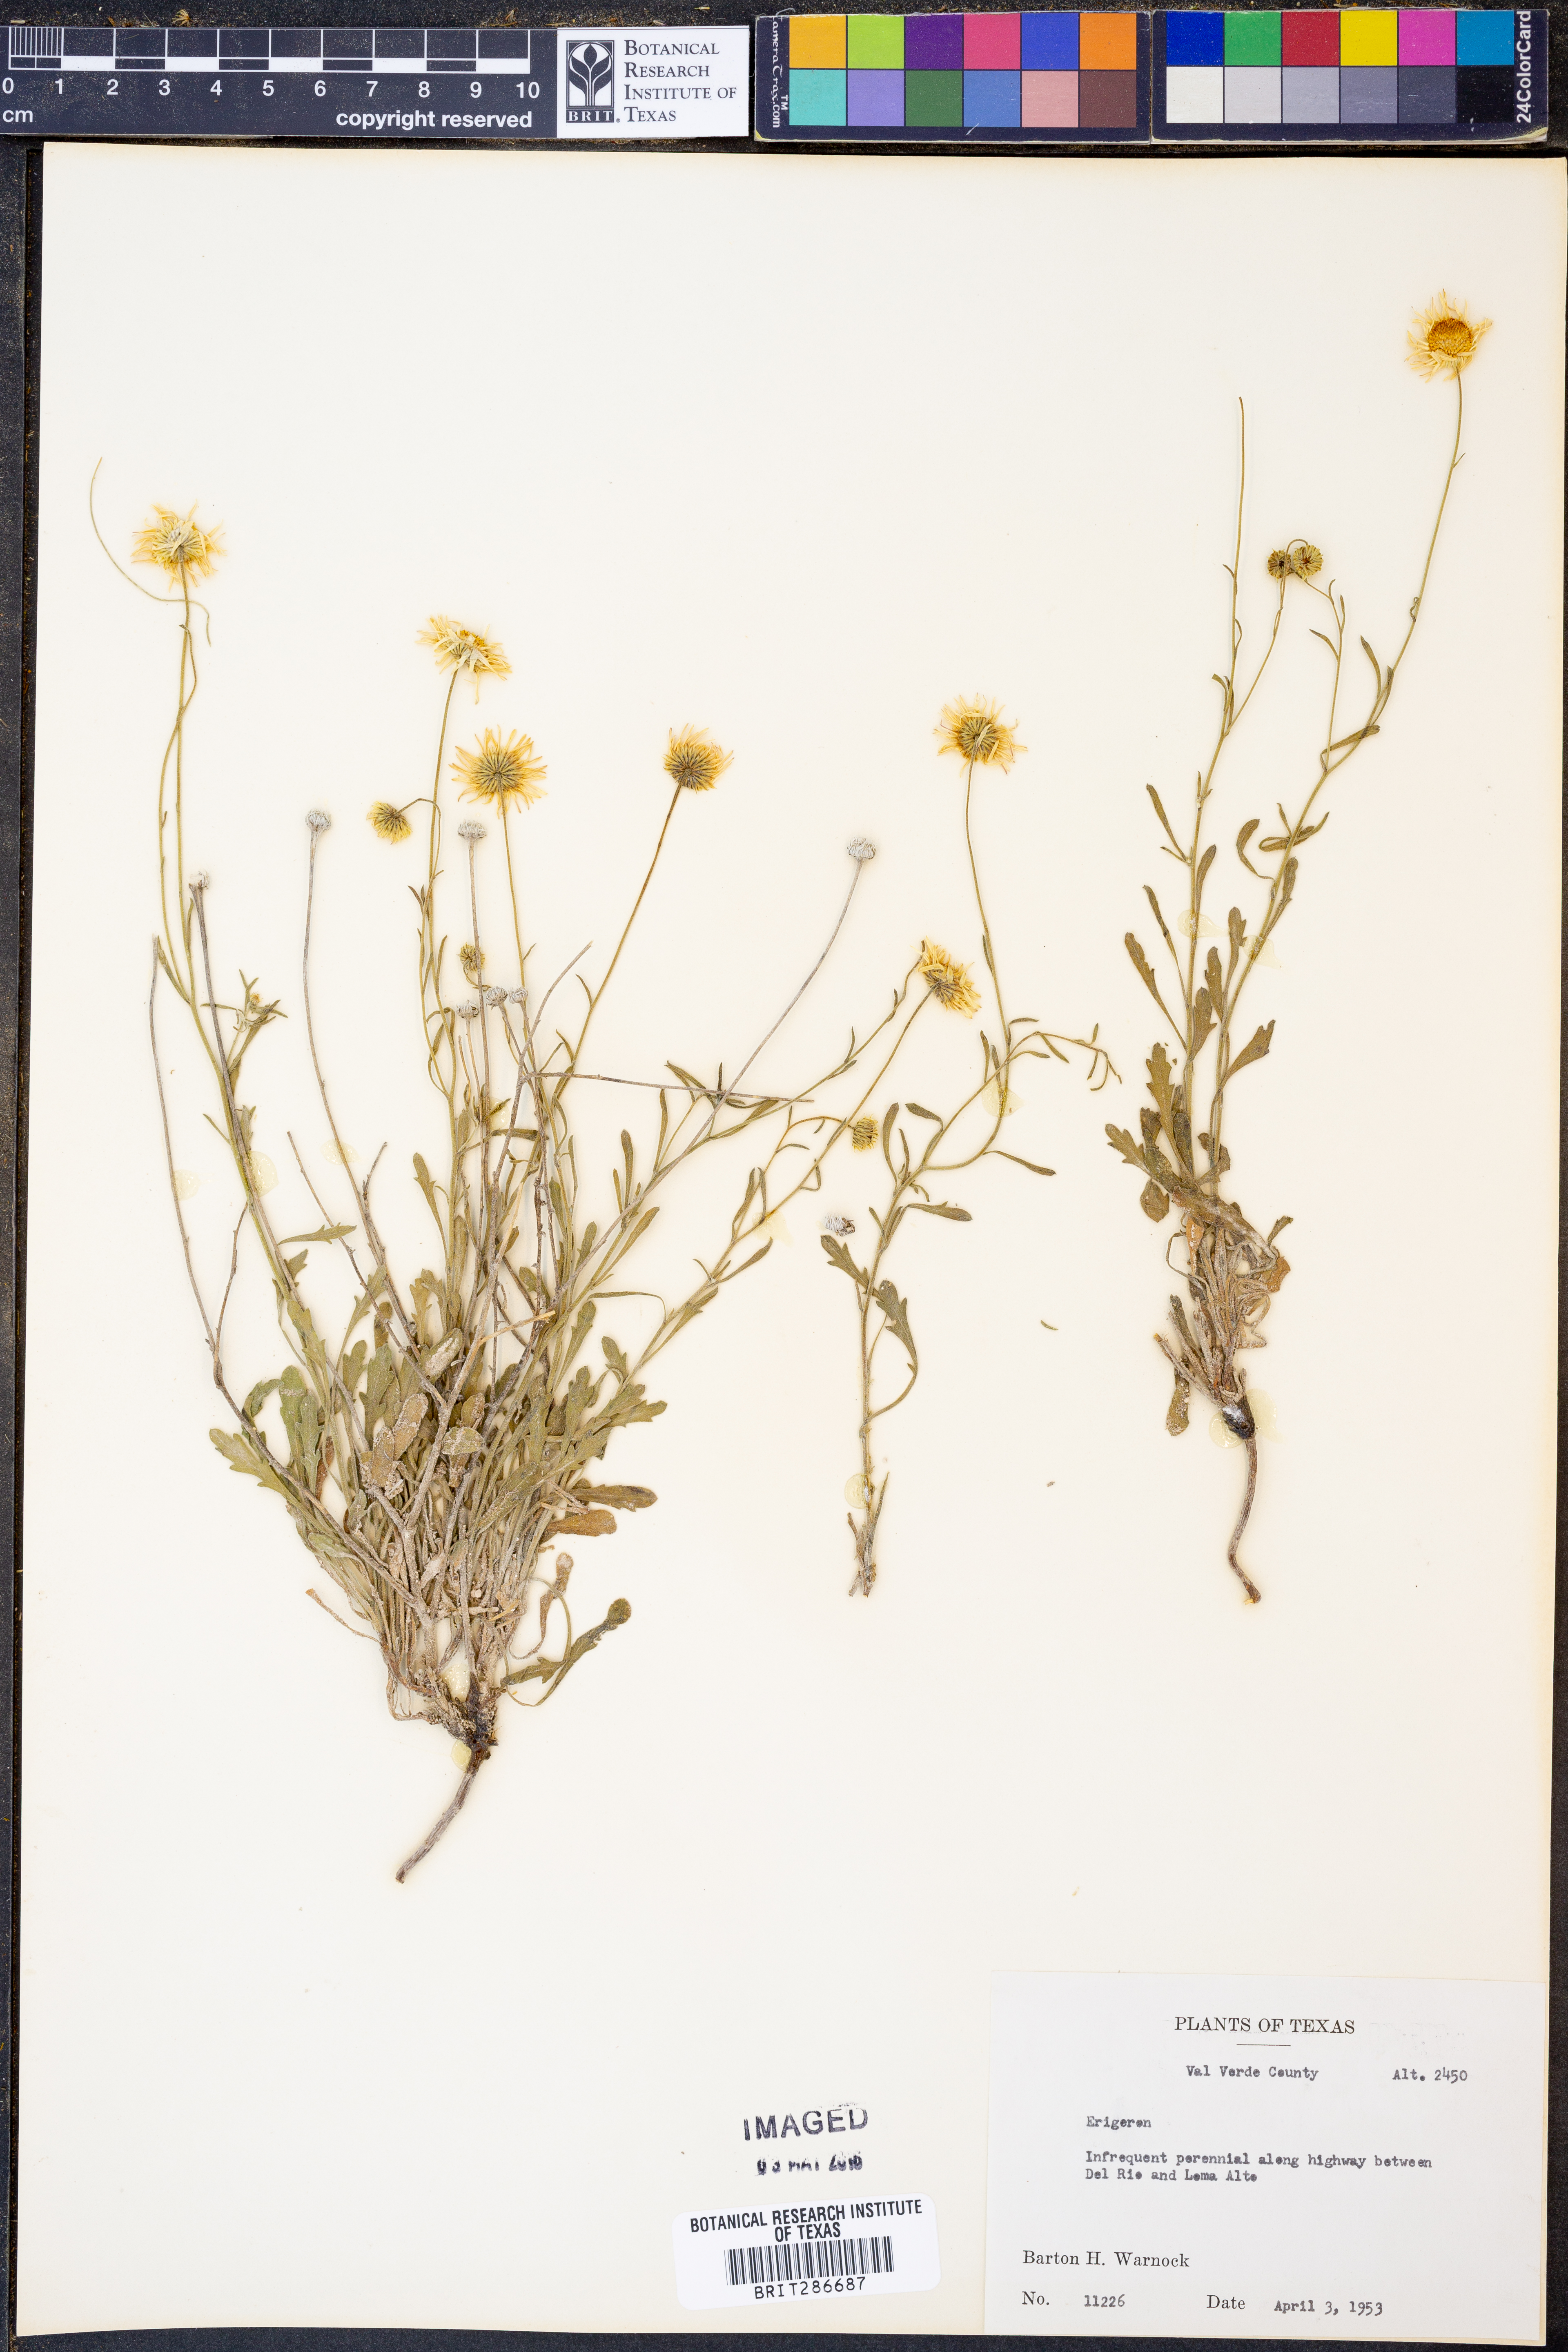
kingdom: Plantae
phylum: Tracheophyta
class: Magnoliopsida
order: Asterales
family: Asteraceae
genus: Erigeron
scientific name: Erigeron
